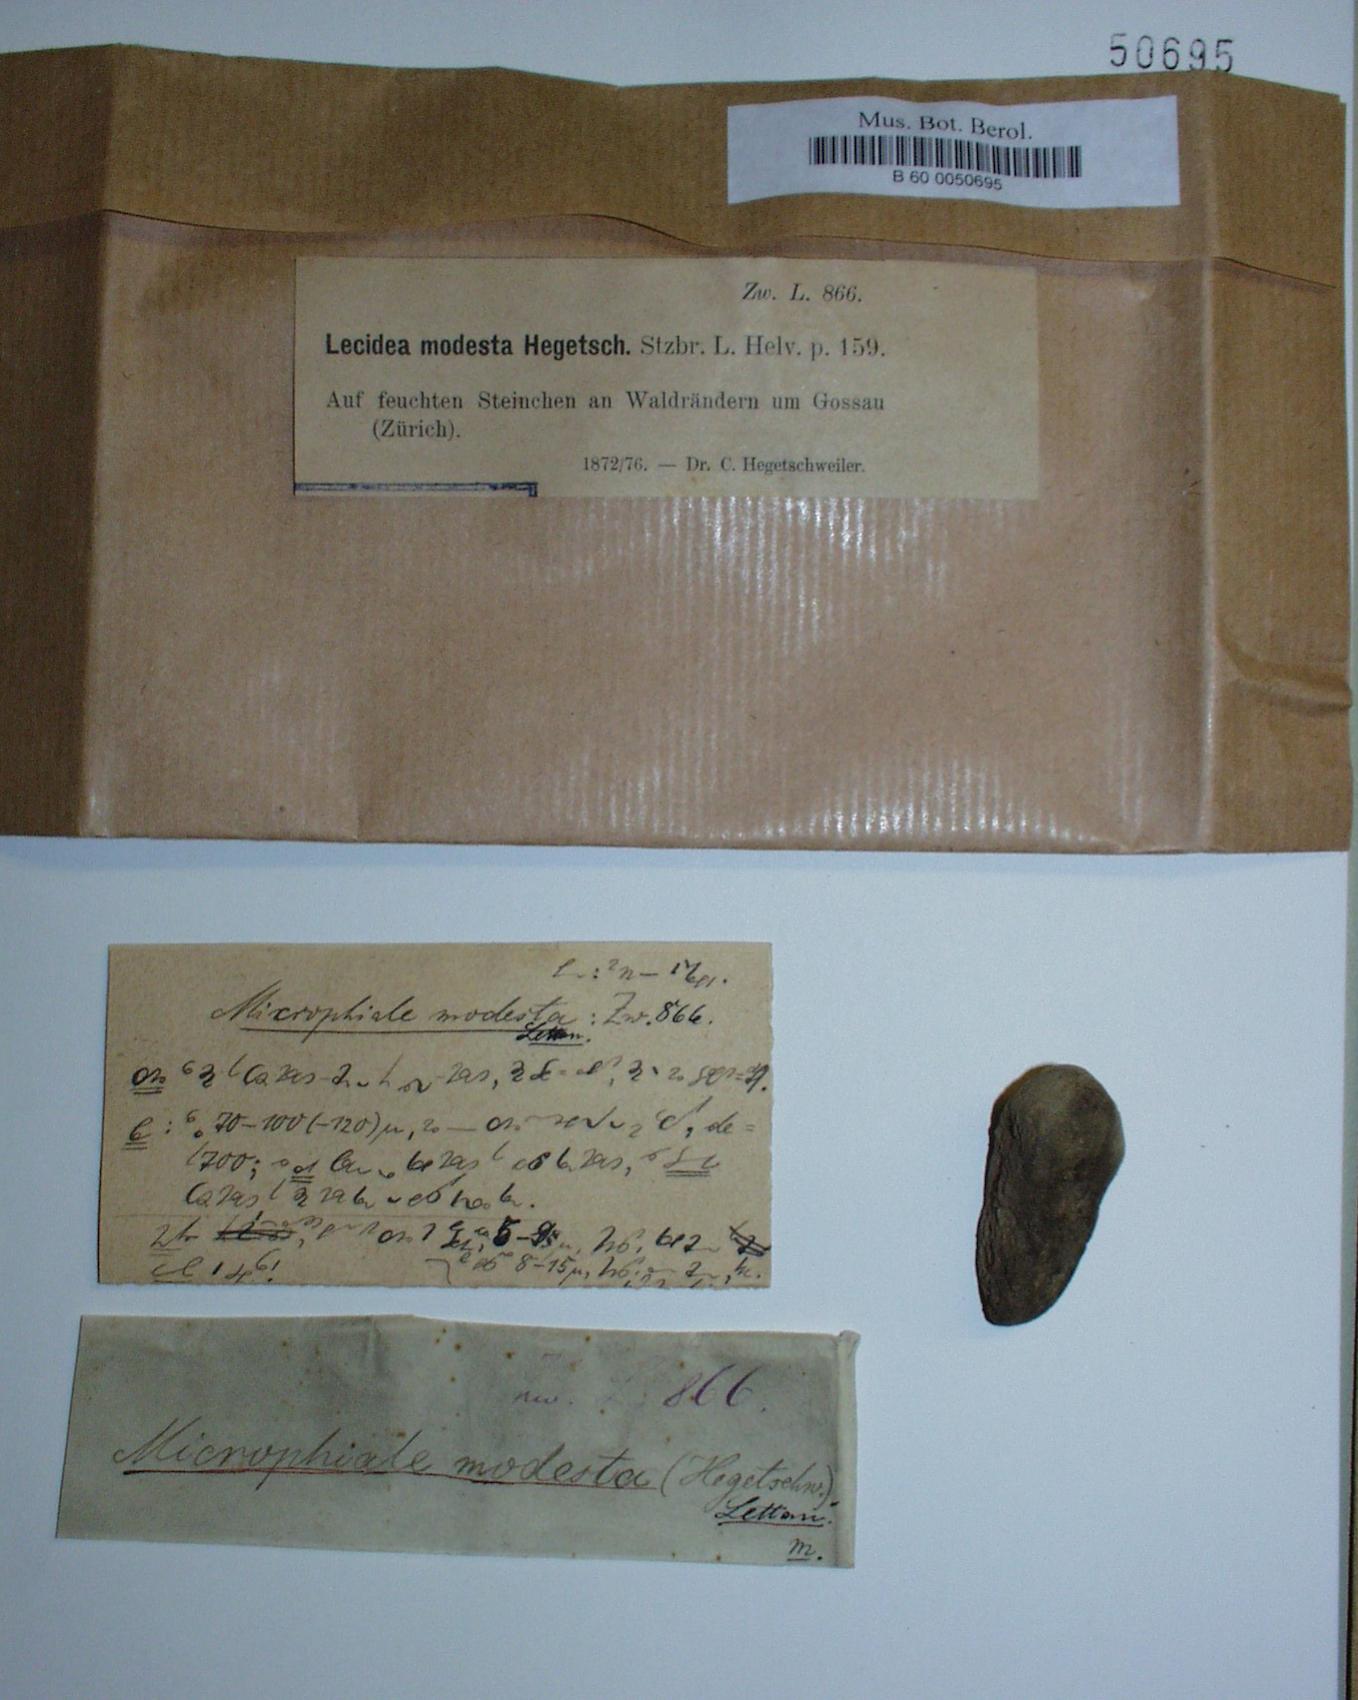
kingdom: Fungi
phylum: Ascomycota
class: Lecanoromycetes
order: Ostropales
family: Stictidaceae
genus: Absconditella
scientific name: Absconditella delutula
